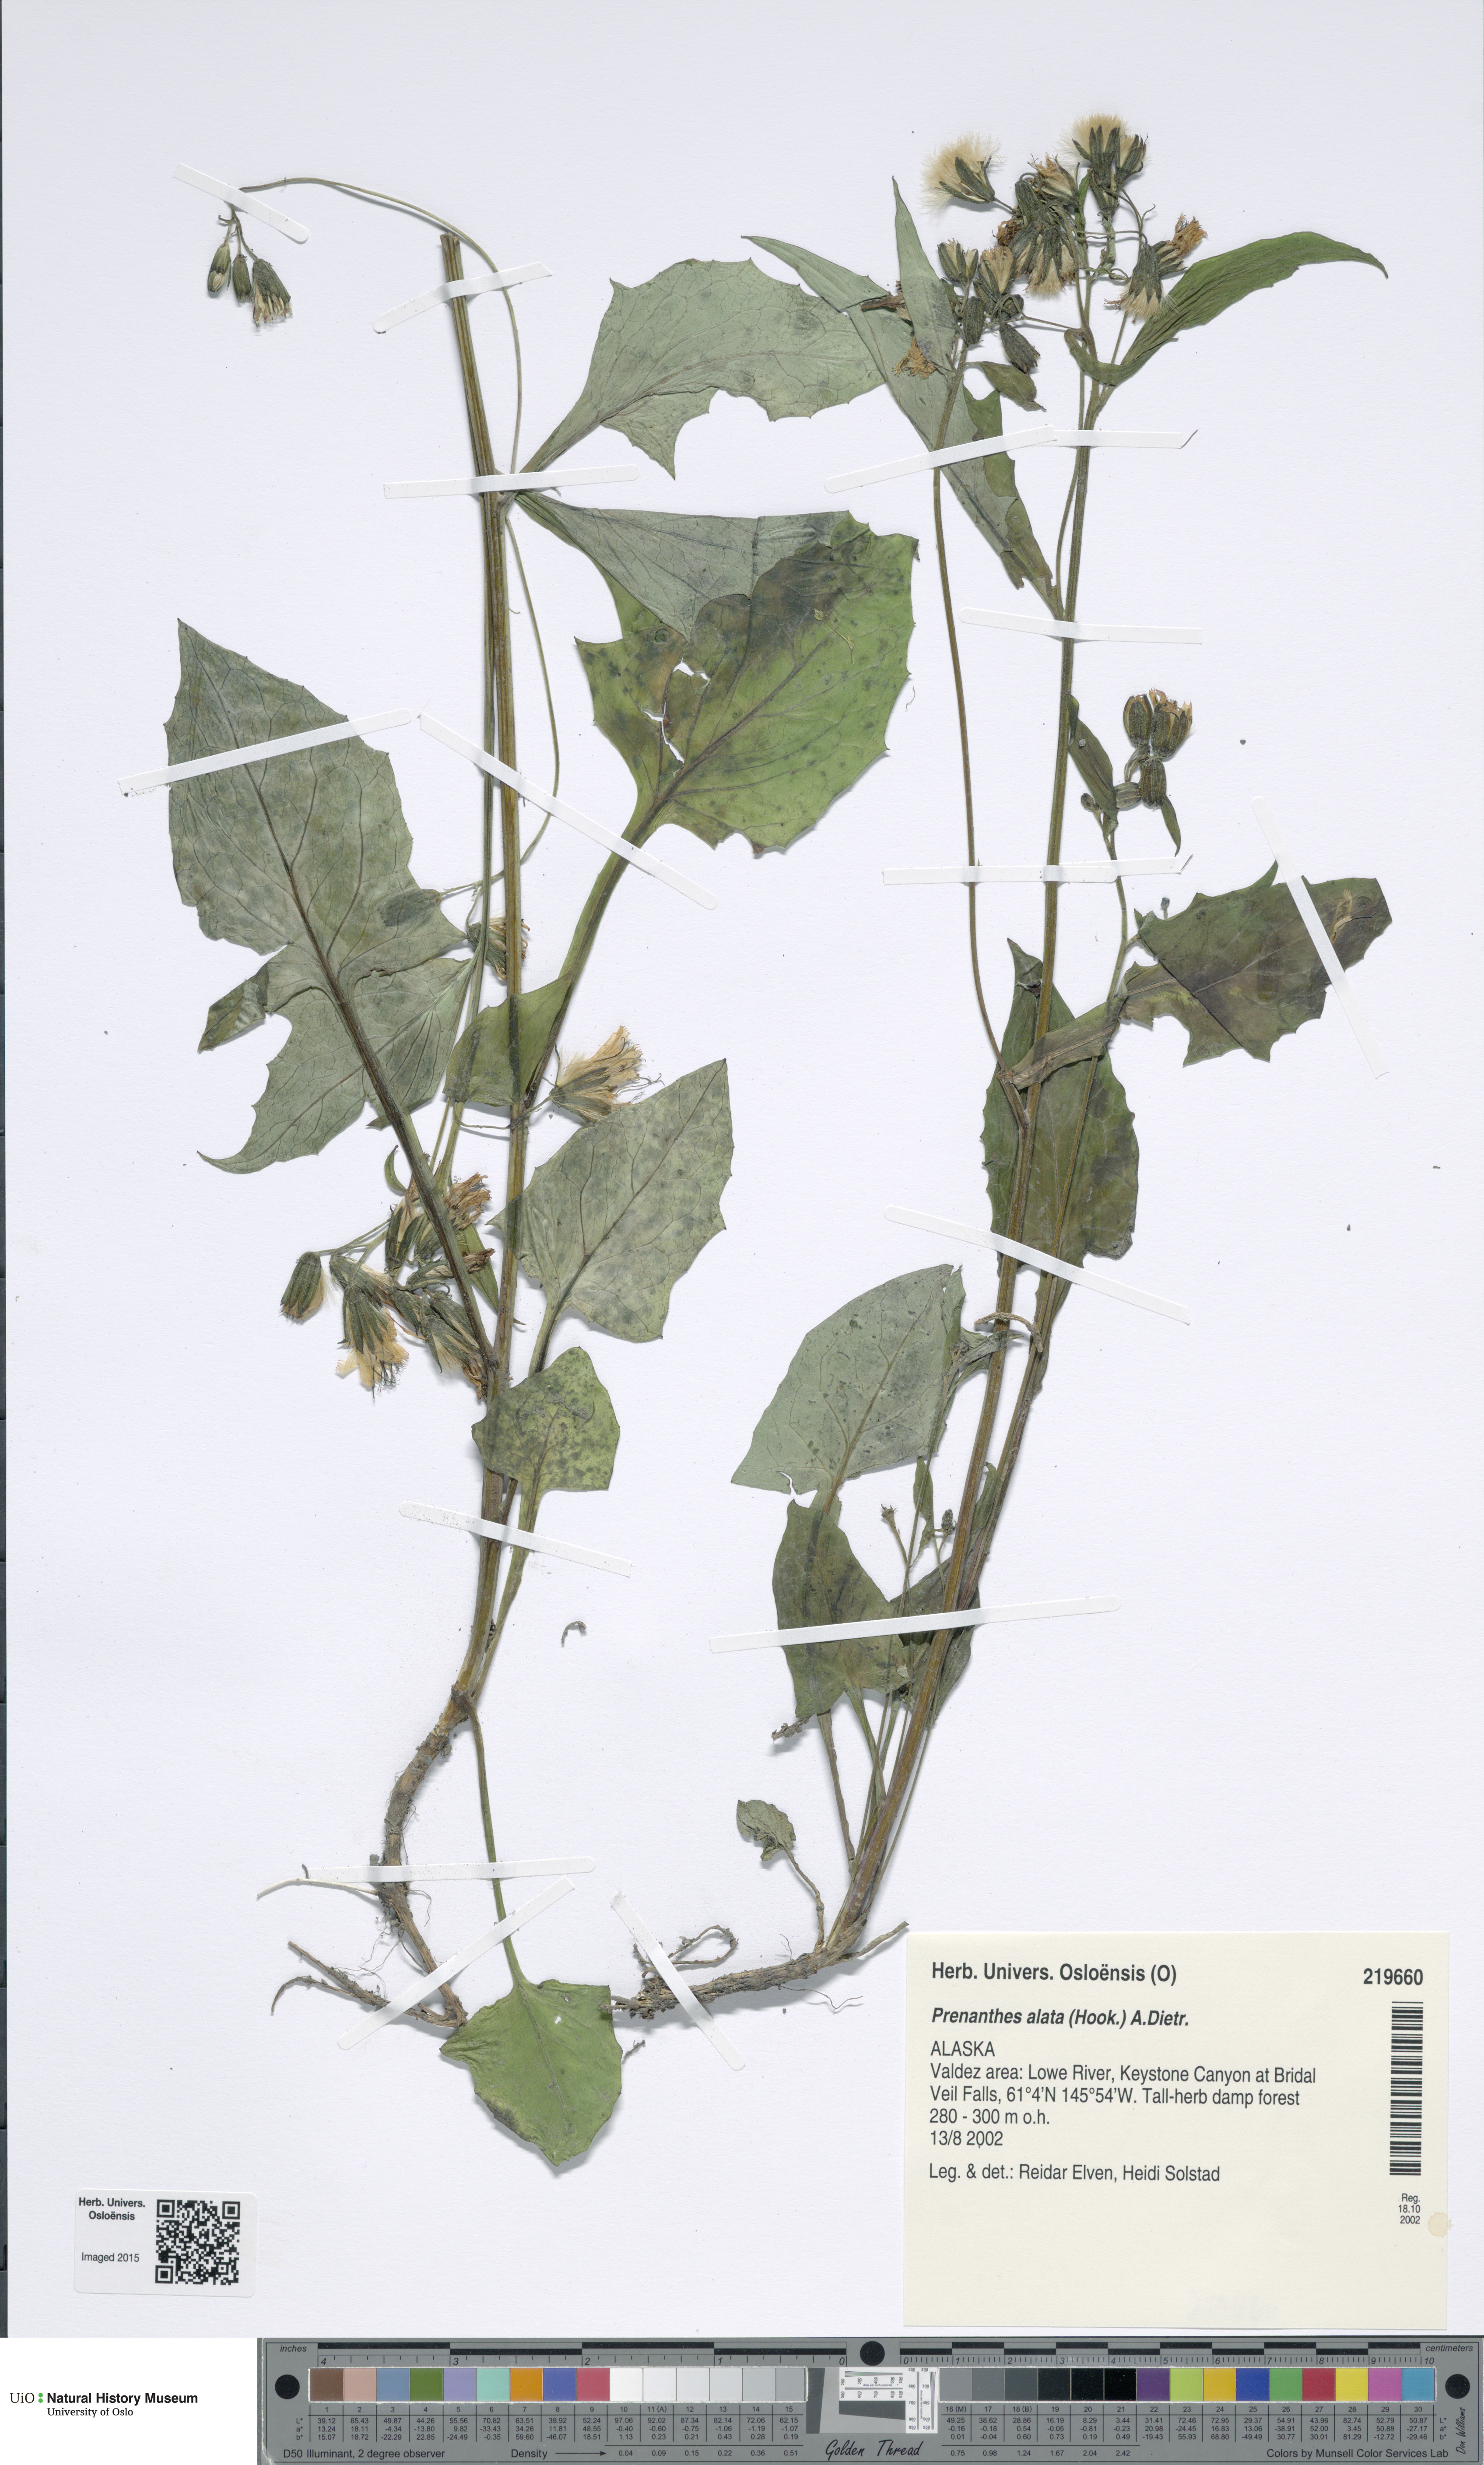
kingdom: Plantae
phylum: Tracheophyta
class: Magnoliopsida
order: Asterales
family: Asteraceae
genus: Prenanthes
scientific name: Prenanthes alata
